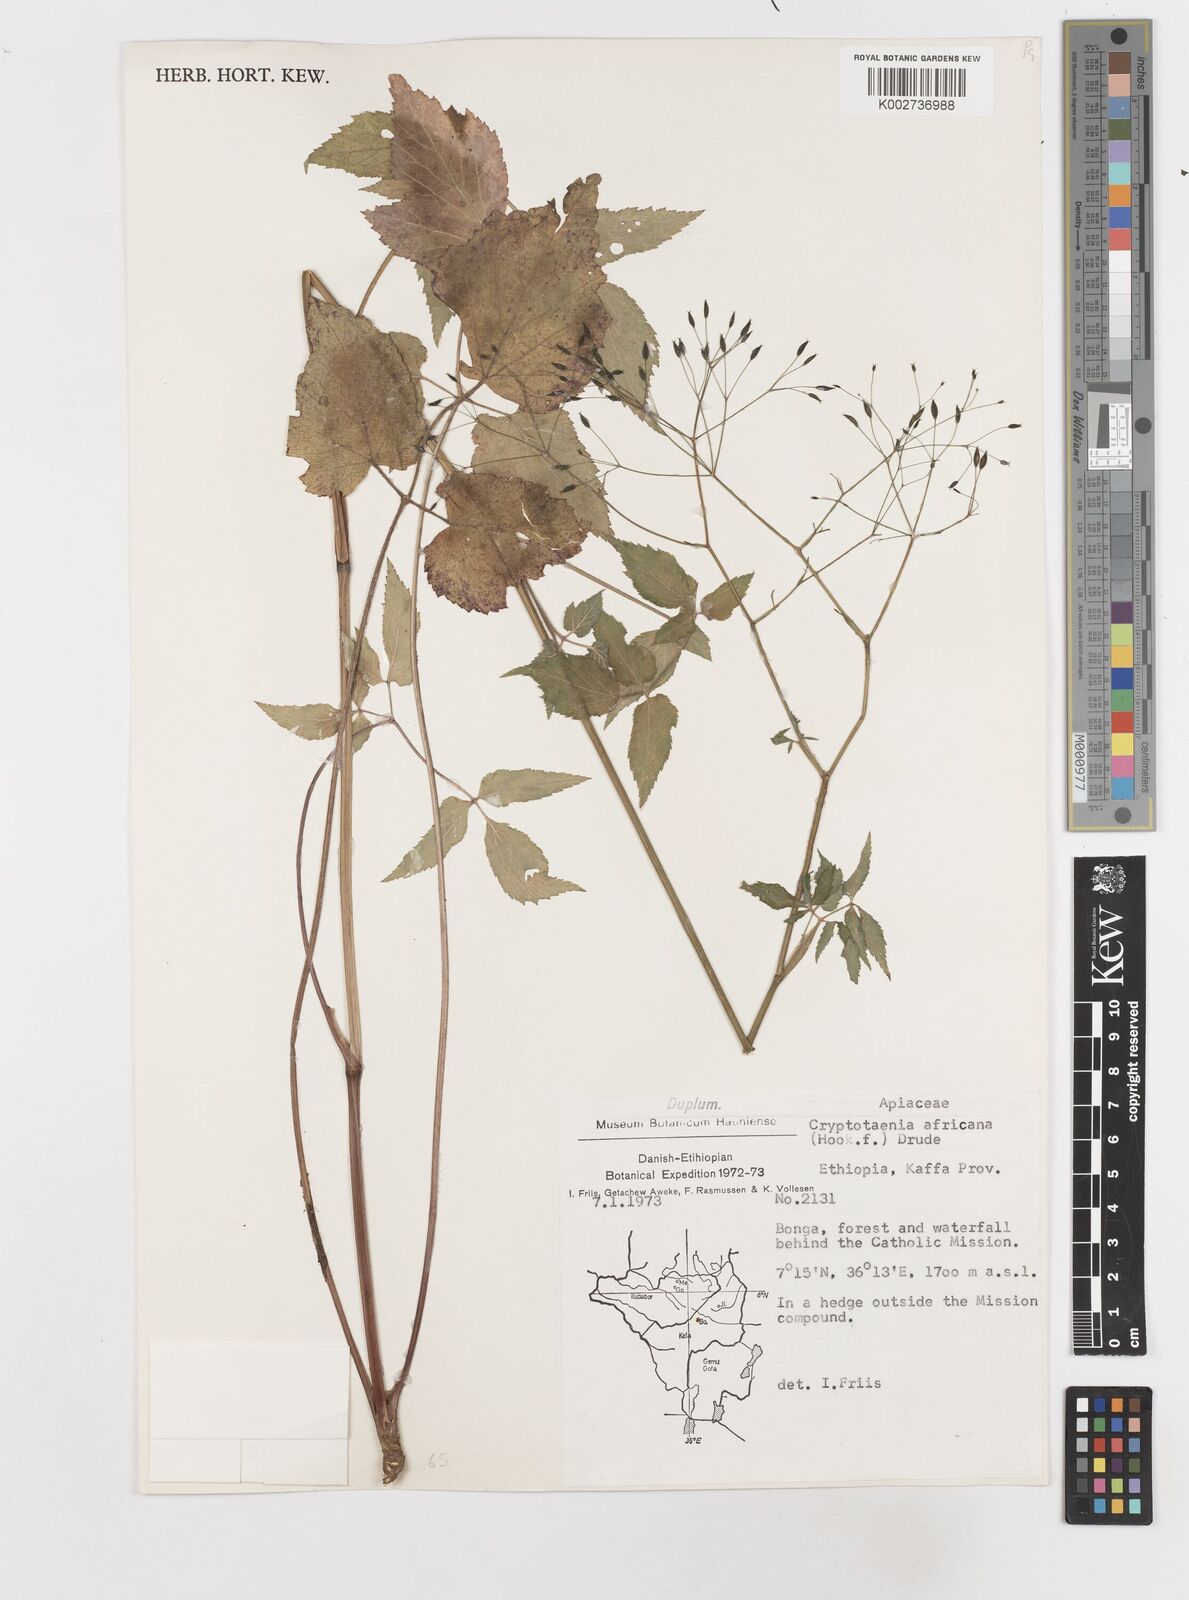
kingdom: Plantae
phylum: Tracheophyta
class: Magnoliopsida
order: Apiales
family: Apiaceae
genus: Cryptotaenia
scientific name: Cryptotaenia africana
